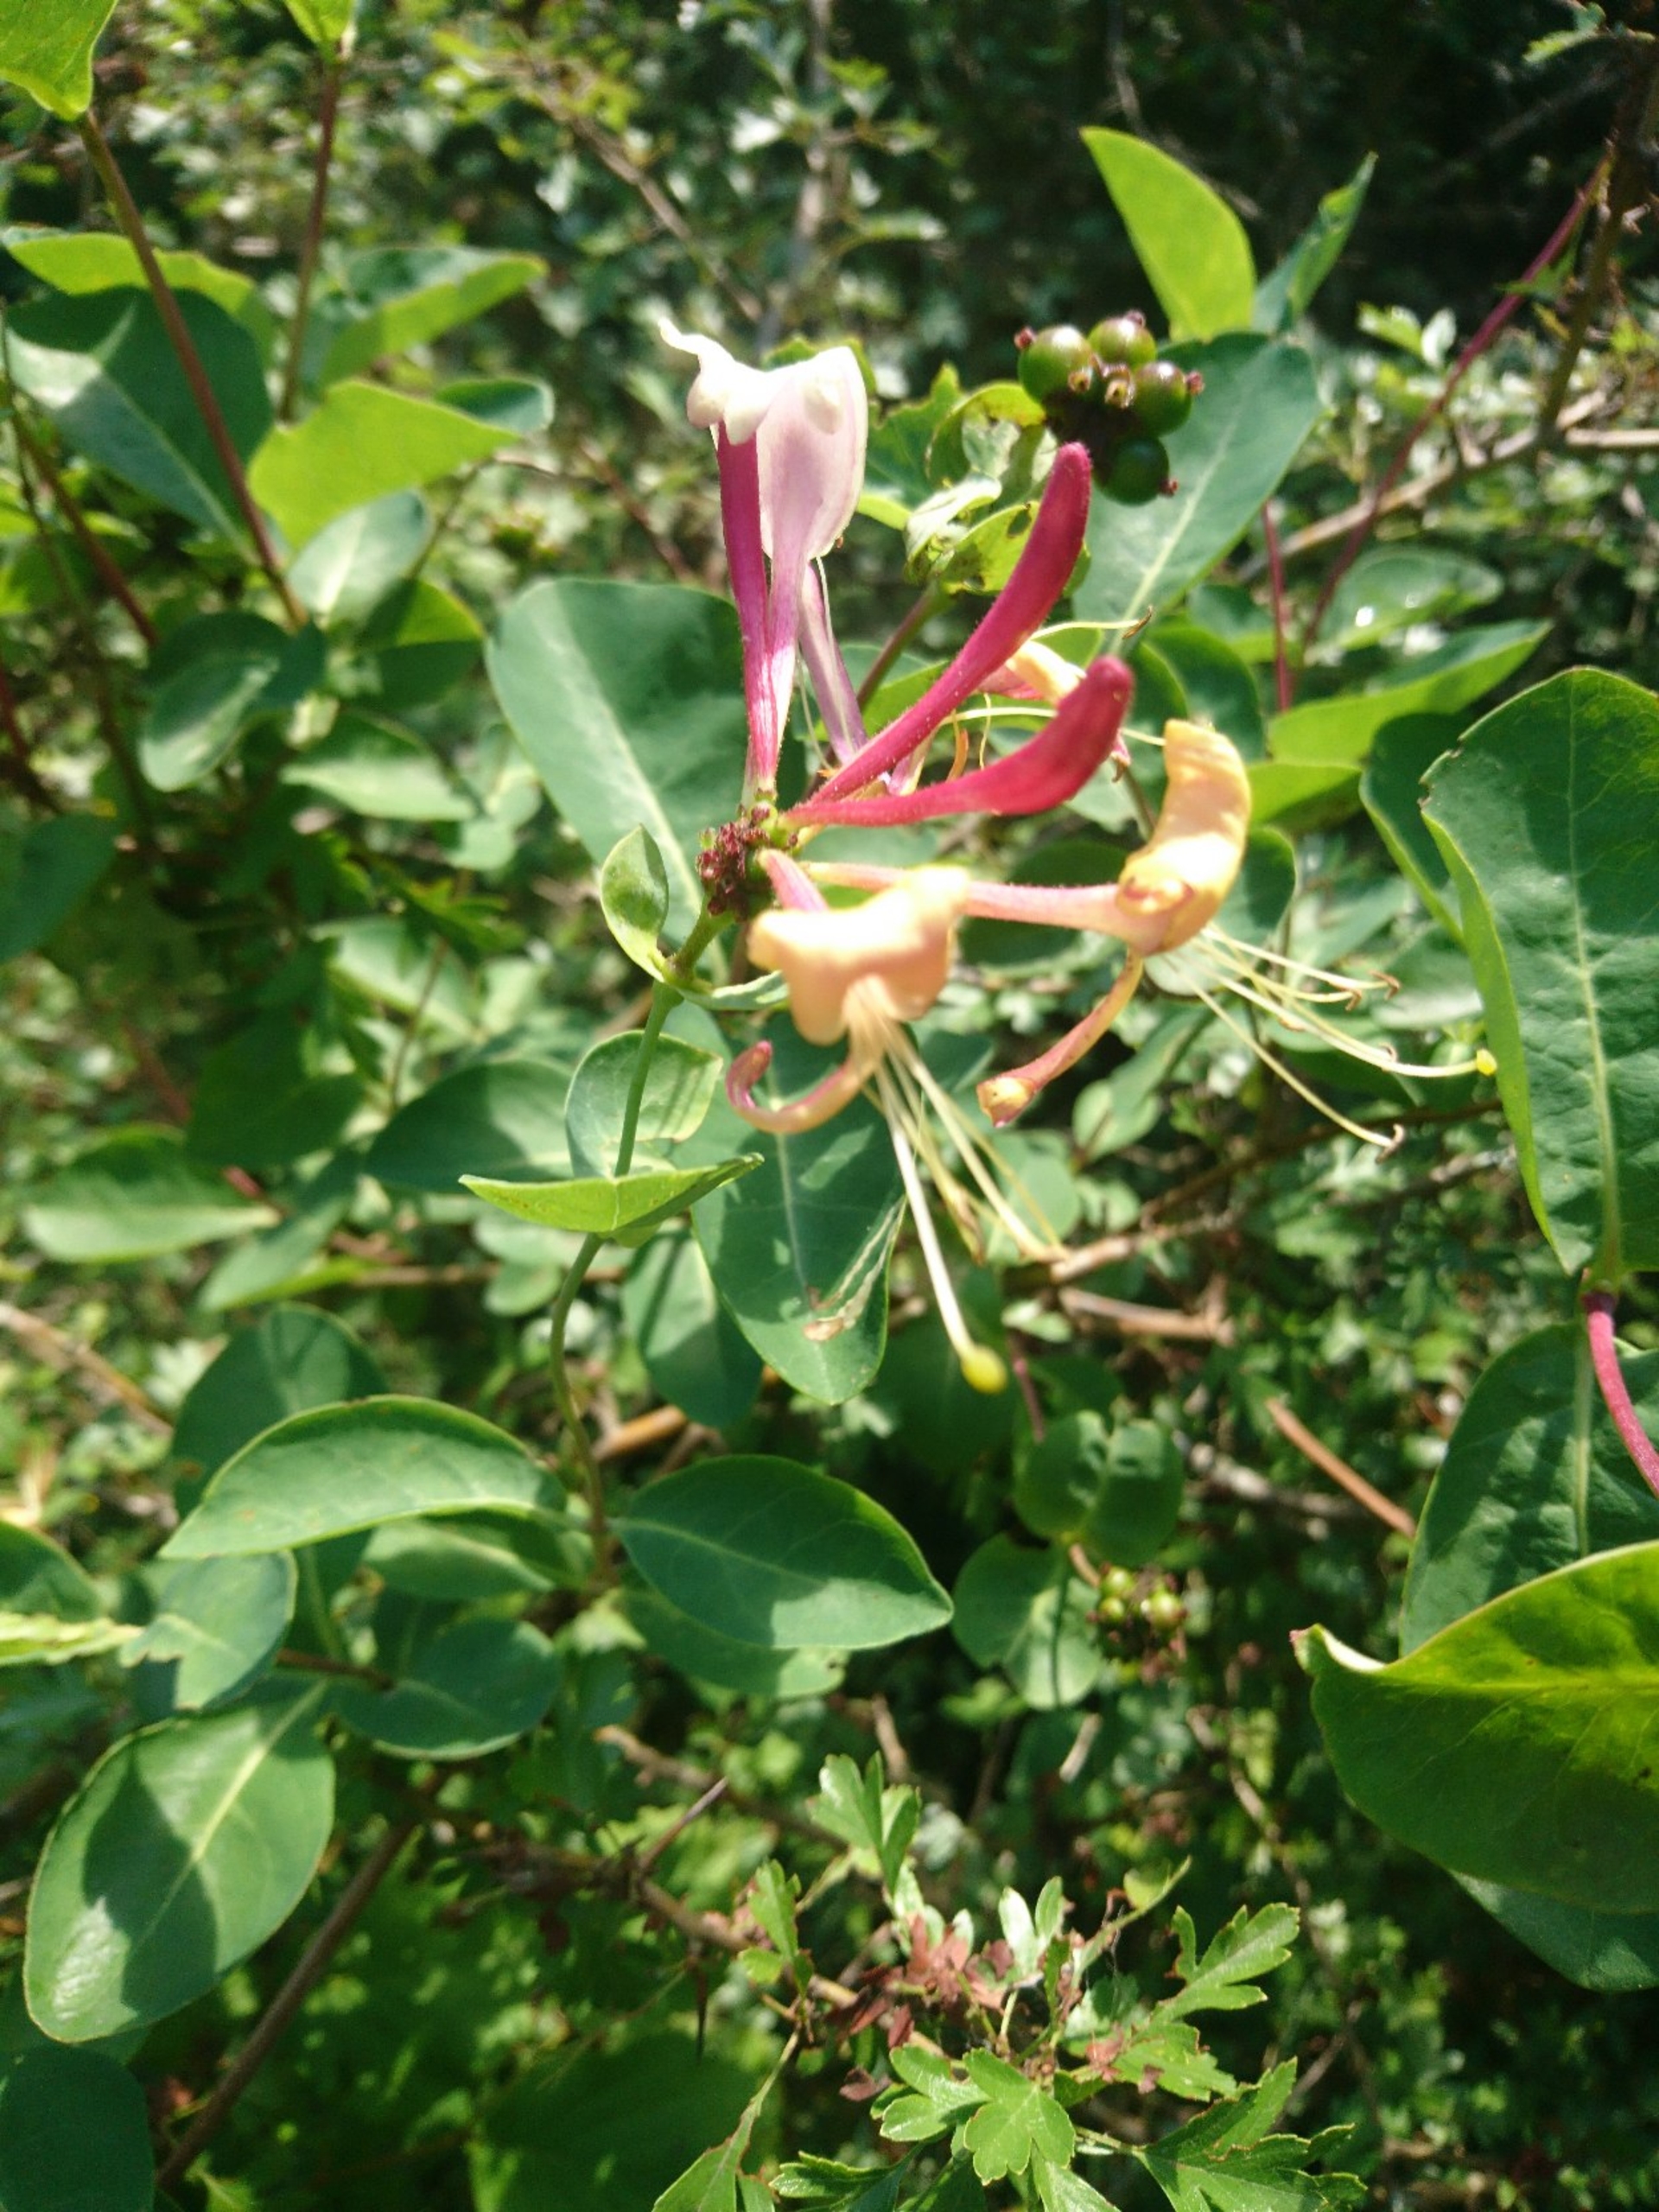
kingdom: Plantae
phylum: Tracheophyta
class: Magnoliopsida
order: Dipsacales
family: Caprifoliaceae
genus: Lonicera
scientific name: Lonicera periclymenum
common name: Almindelig gedeblad
